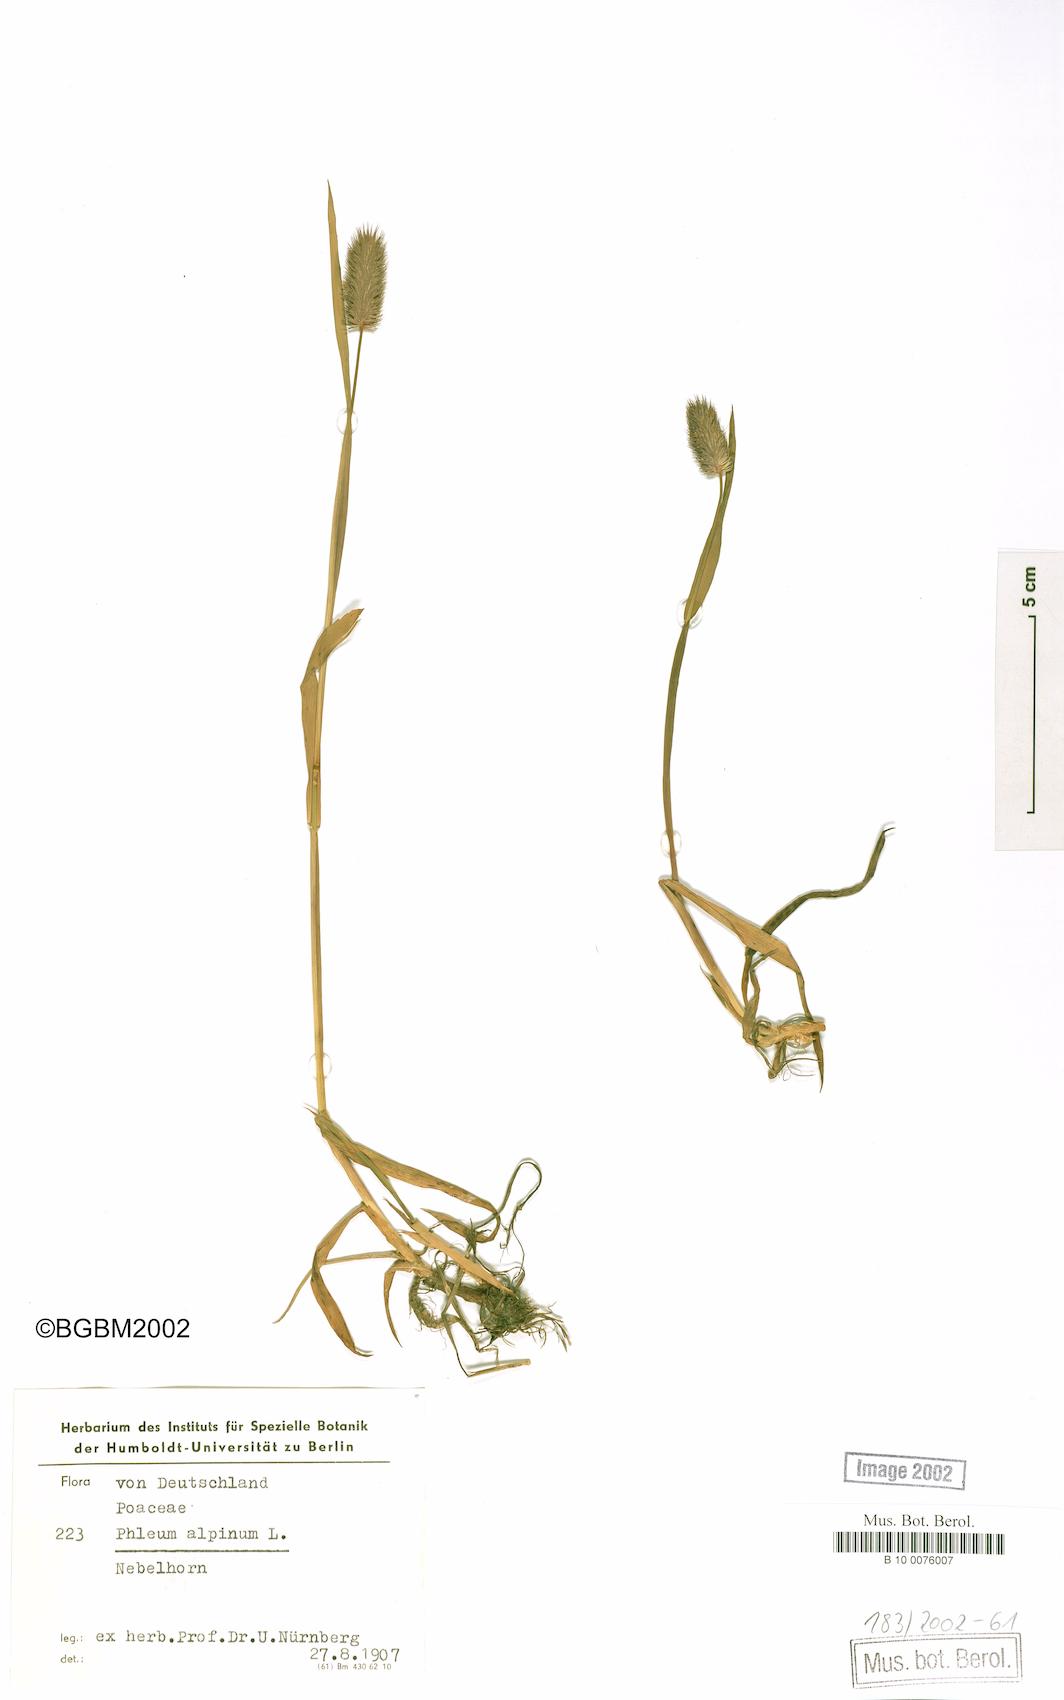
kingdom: Plantae
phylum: Tracheophyta
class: Liliopsida
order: Poales
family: Poaceae
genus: Phleum
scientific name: Phleum alpinum
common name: Alpine cat's-tail
